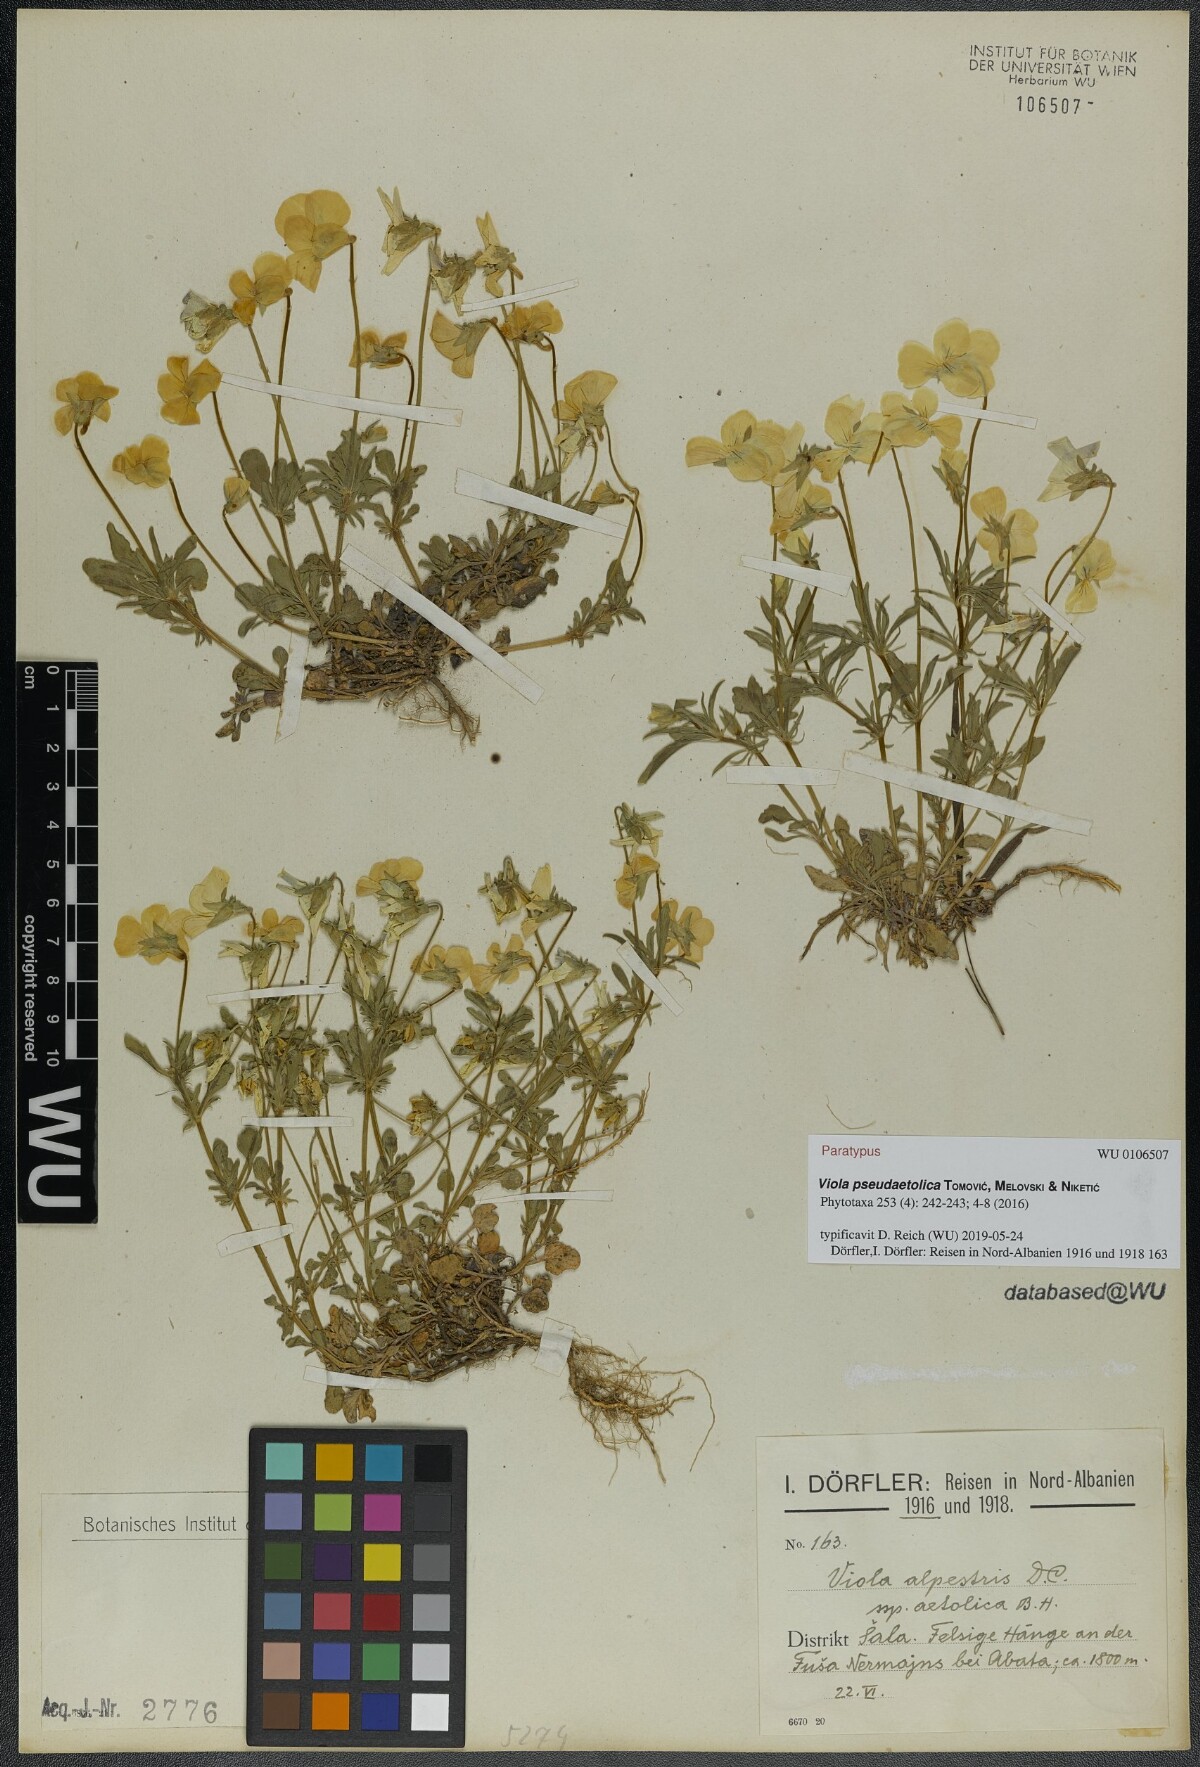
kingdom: Plantae
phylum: Tracheophyta
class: Magnoliopsida
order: Malpighiales
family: Violaceae
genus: Viola
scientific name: Viola pseudaetolica
